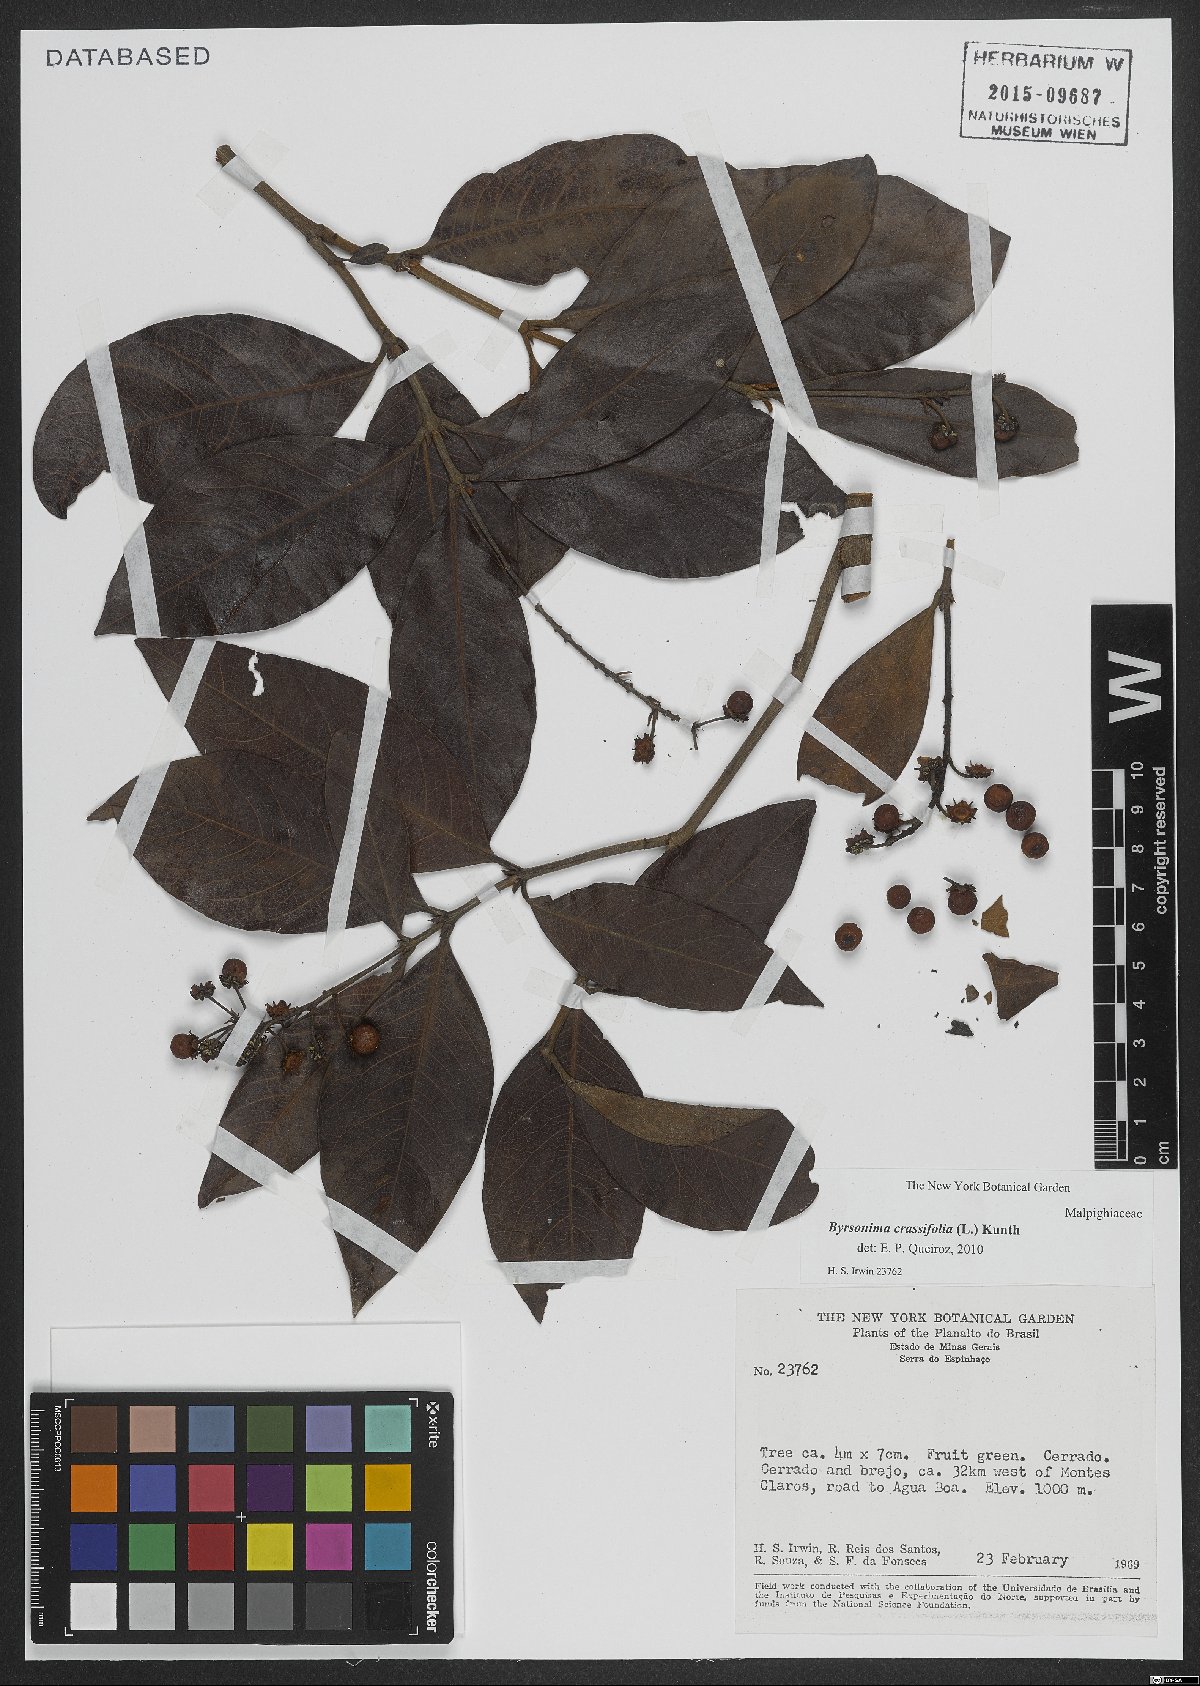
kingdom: Plantae
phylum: Tracheophyta
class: Magnoliopsida
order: Malpighiales
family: Malpighiaceae
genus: Byrsonima
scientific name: Byrsonima crassifolia
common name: Golden spoon
